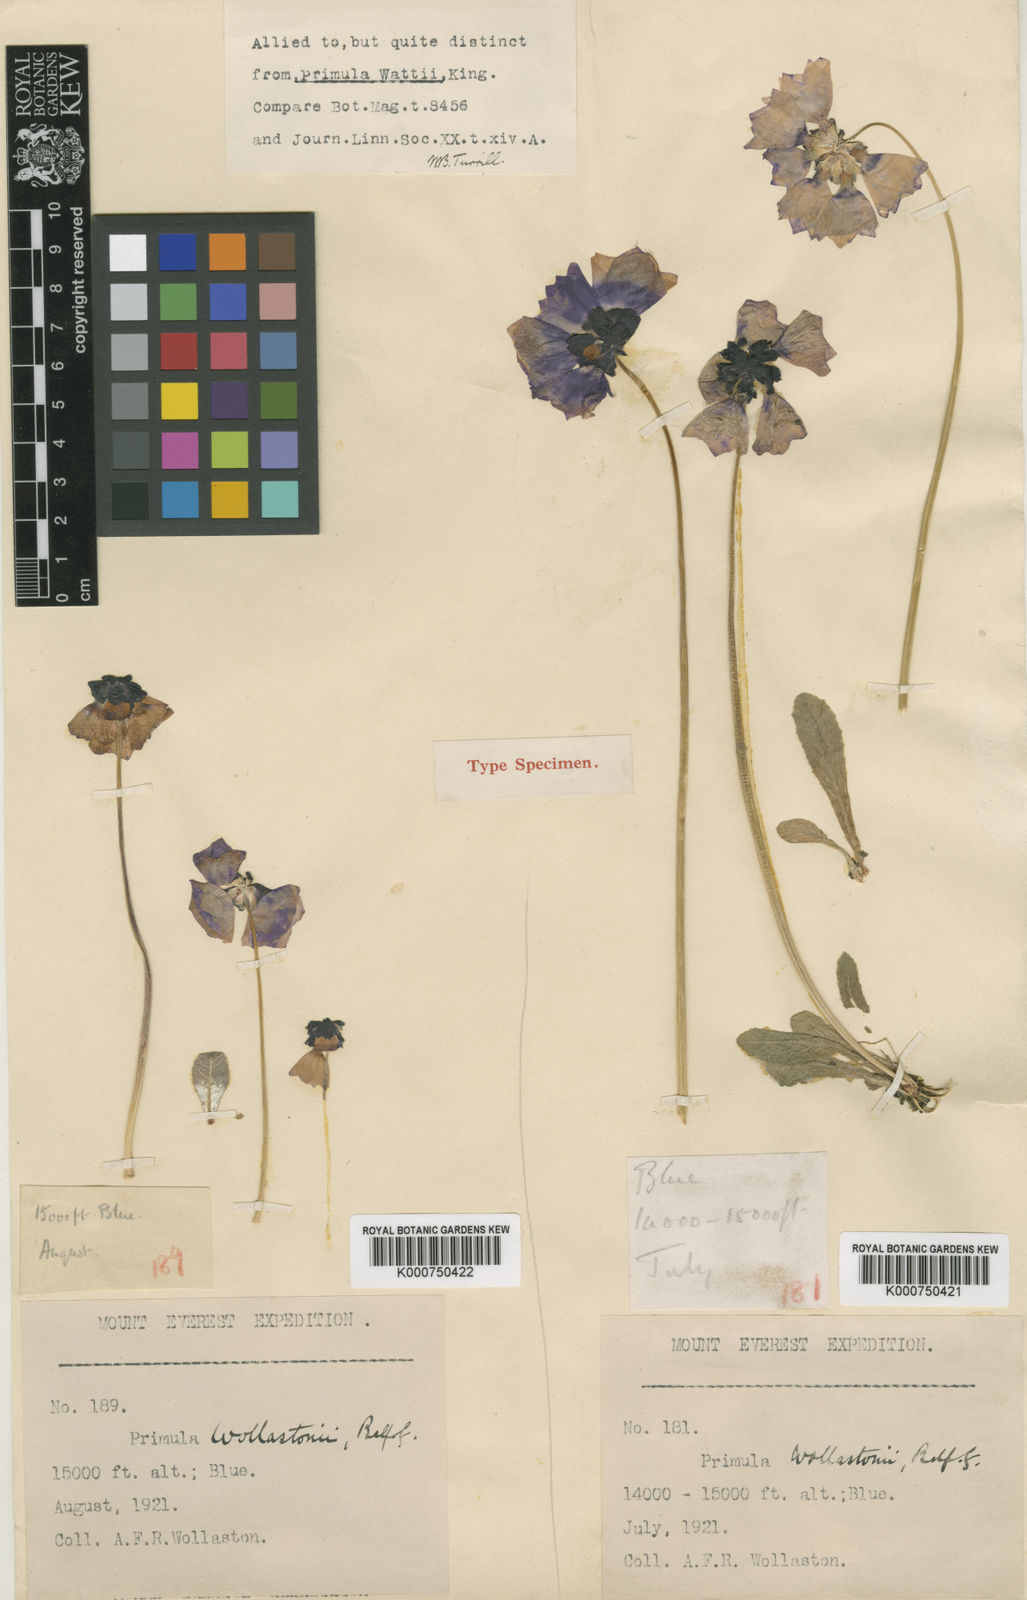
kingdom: Plantae
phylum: Tracheophyta
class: Magnoliopsida
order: Ericales
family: Primulaceae
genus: Primula
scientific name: Primula wollastonii
